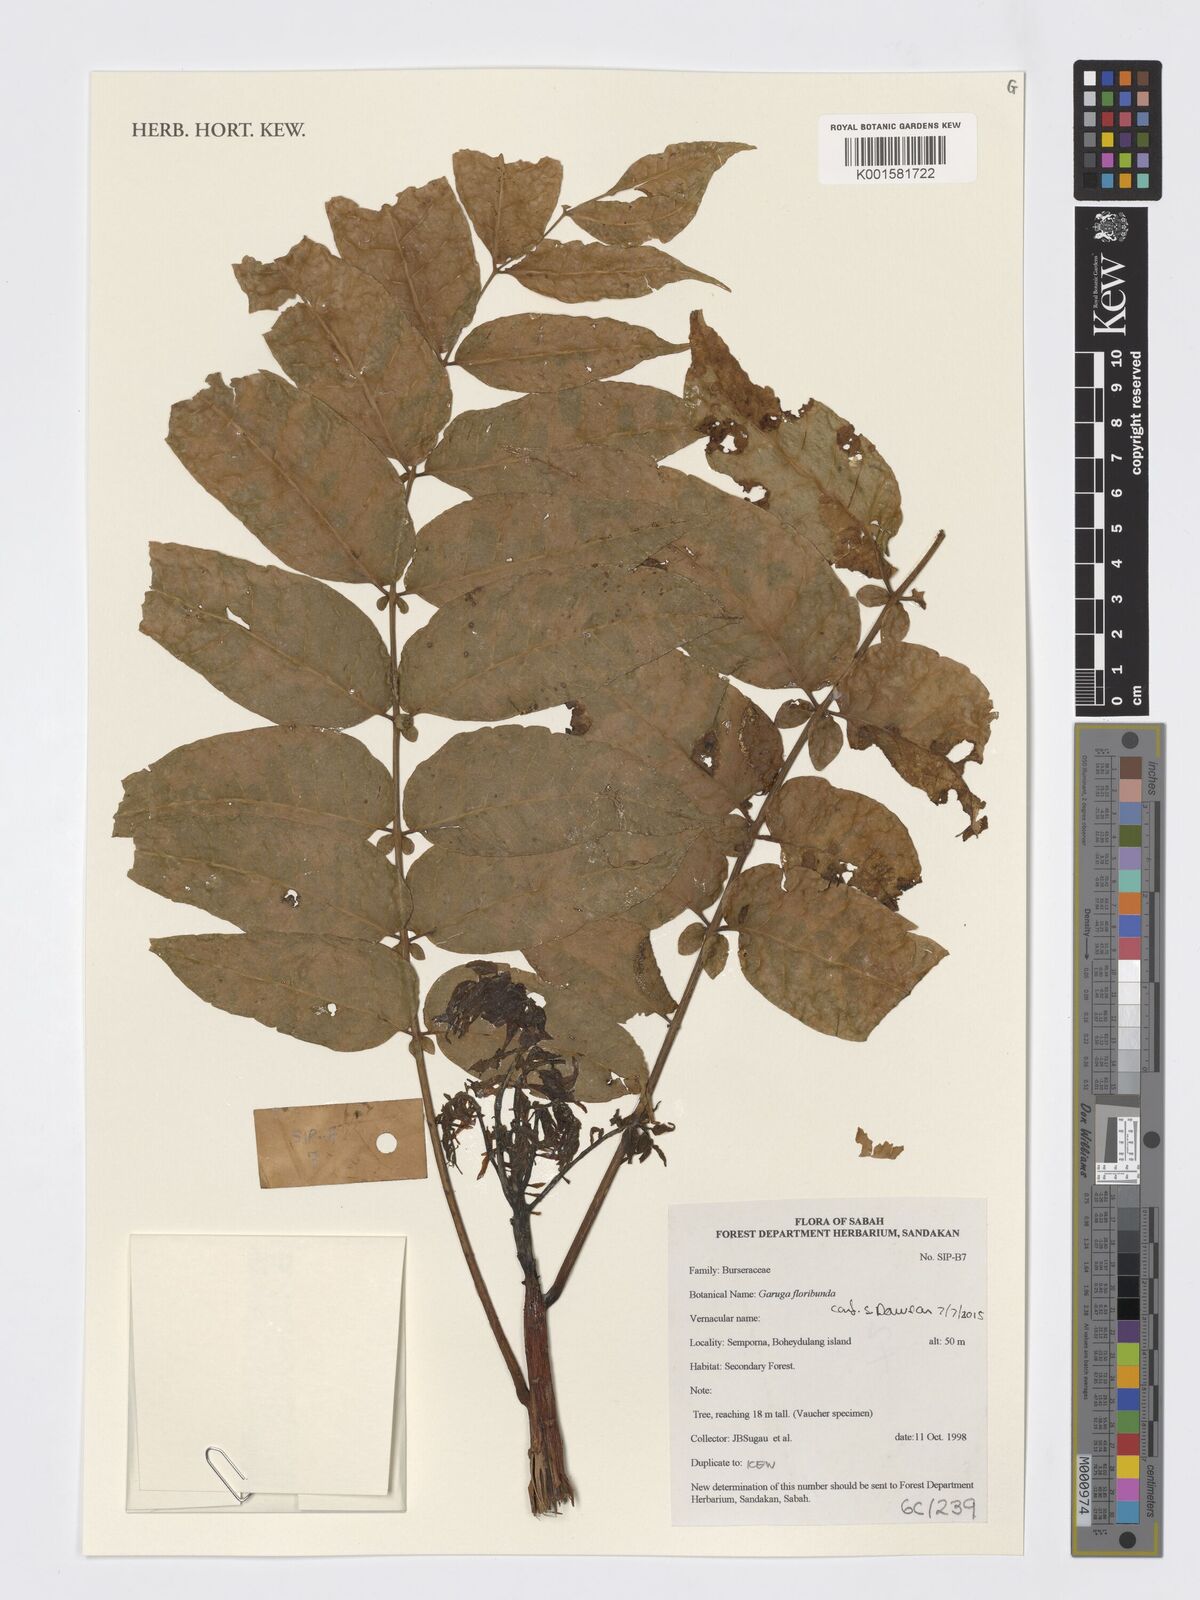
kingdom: Plantae
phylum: Tracheophyta
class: Magnoliopsida
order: Sapindales
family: Burseraceae
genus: Garuga
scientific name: Garuga floribunda
